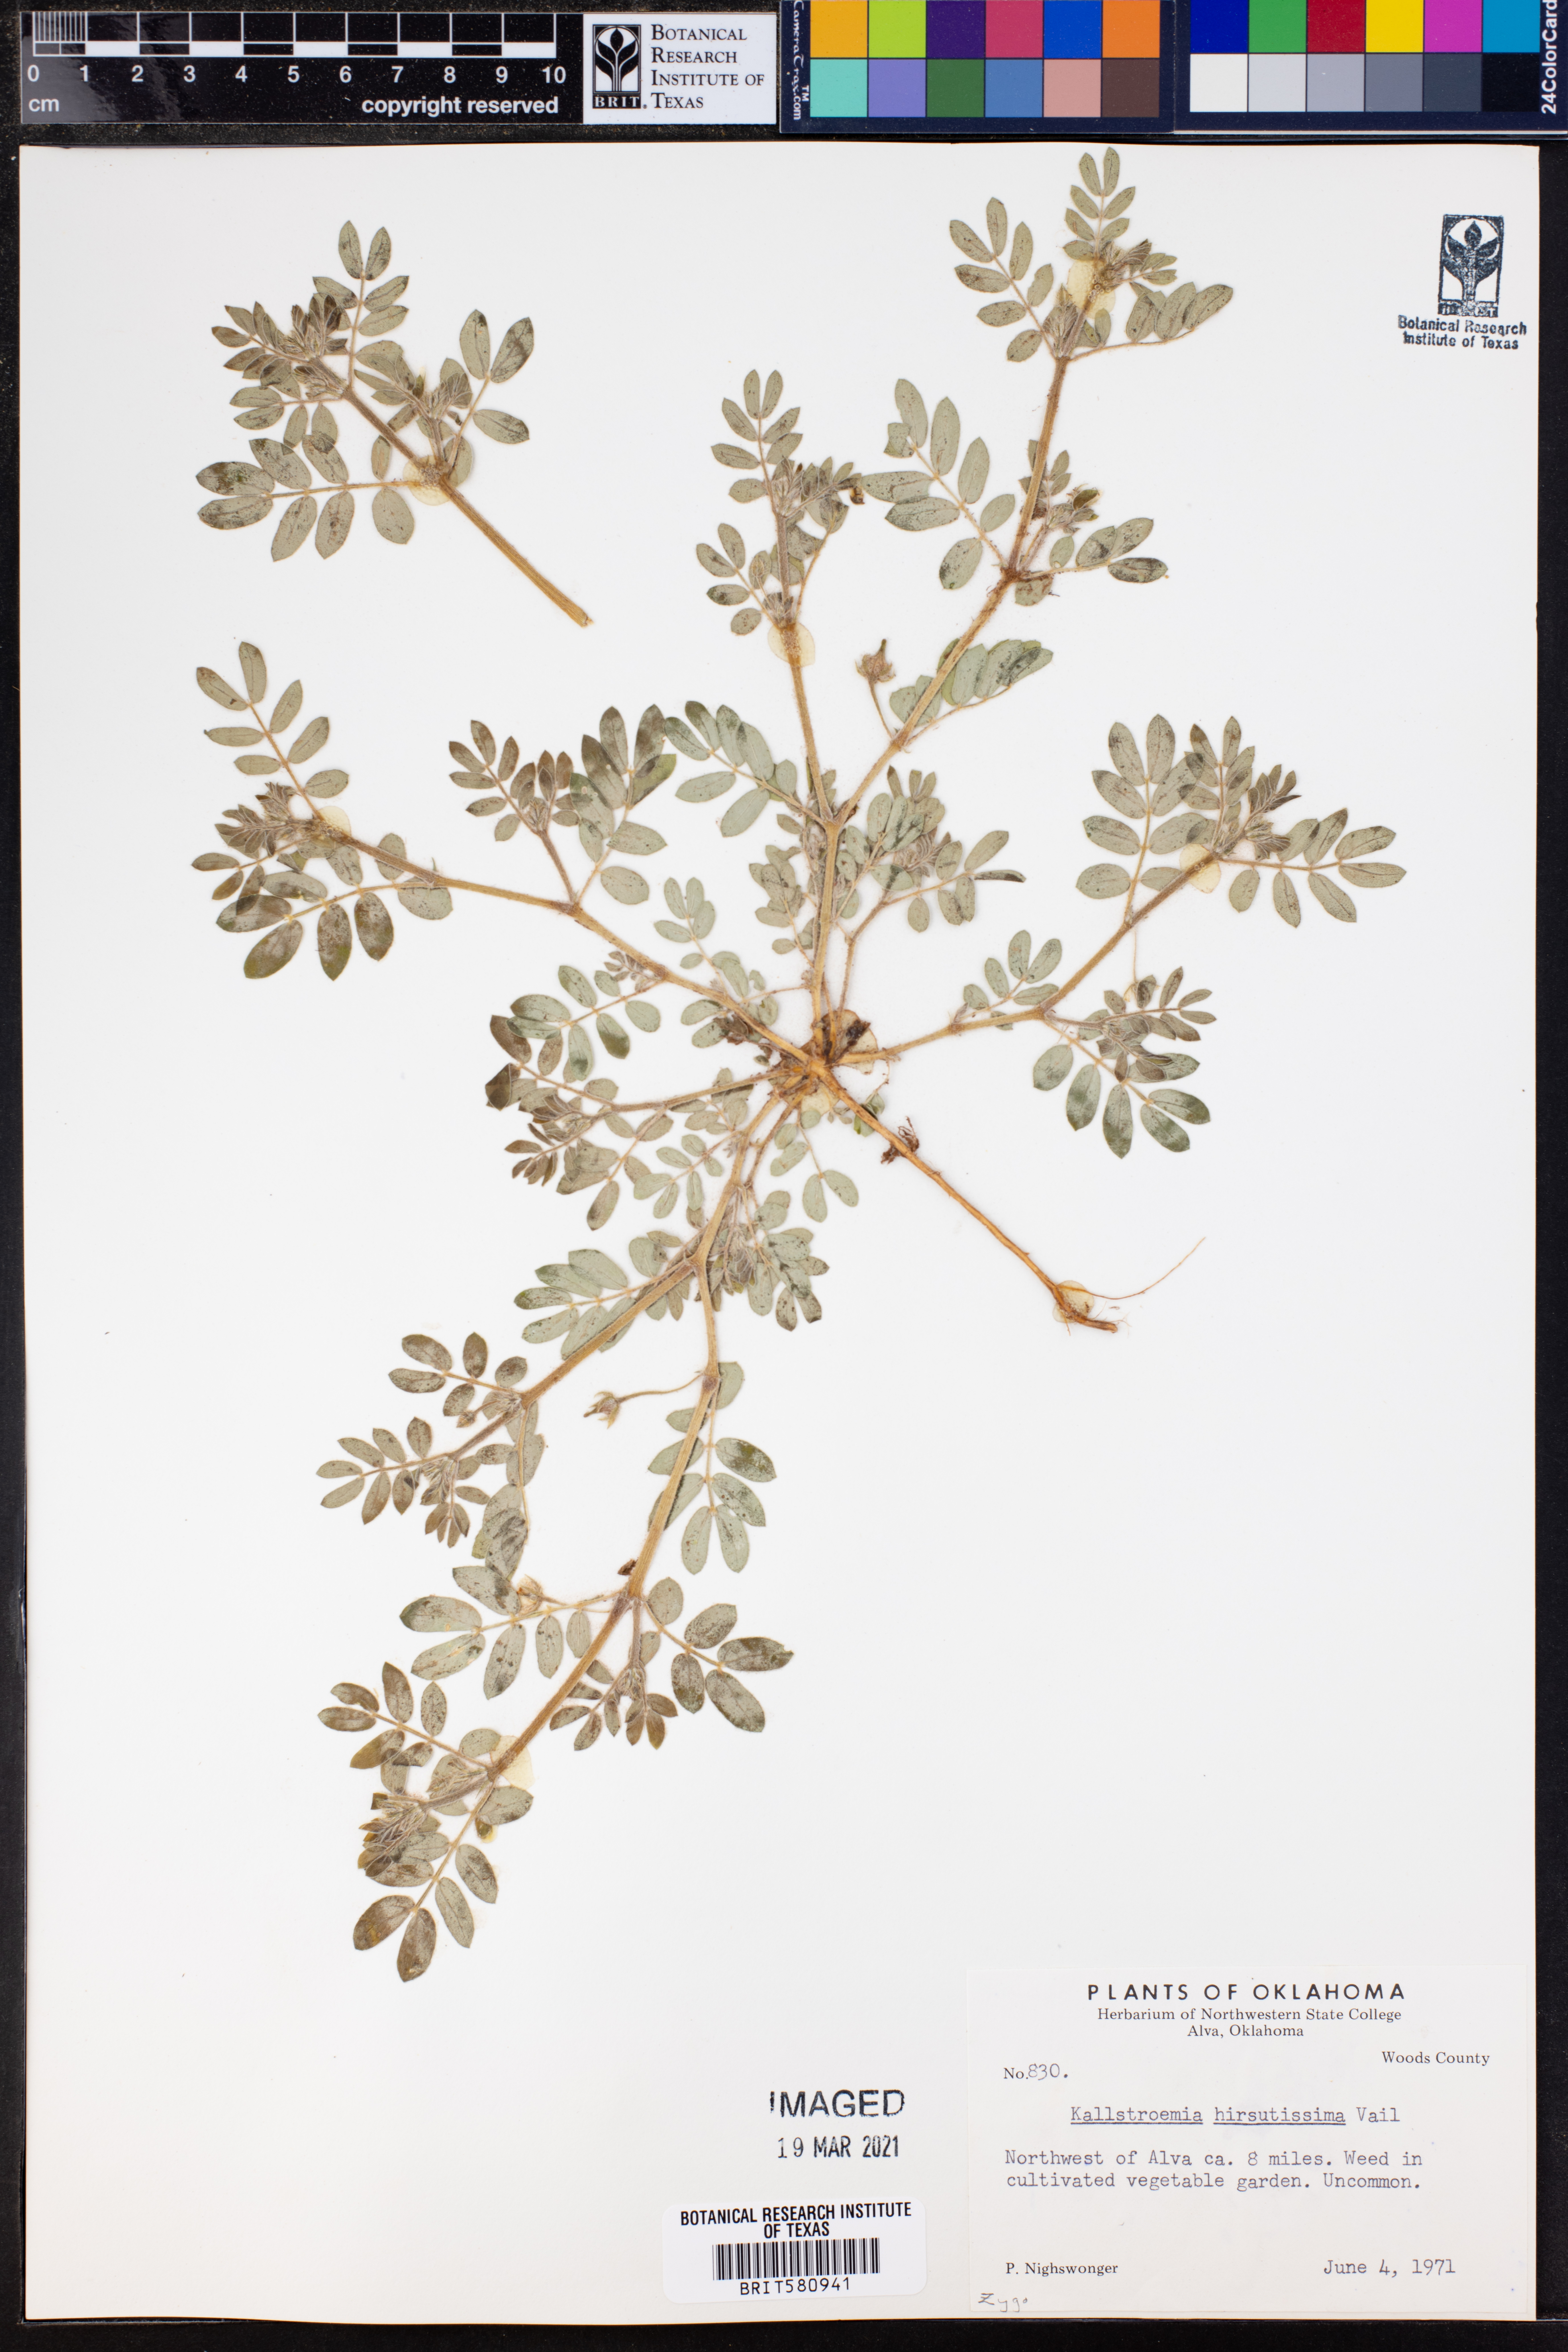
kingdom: Plantae
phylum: Tracheophyta
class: Magnoliopsida
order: Zygophyllales
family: Zygophyllaceae
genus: Kallstroemia
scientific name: Kallstroemia hirsutissima
